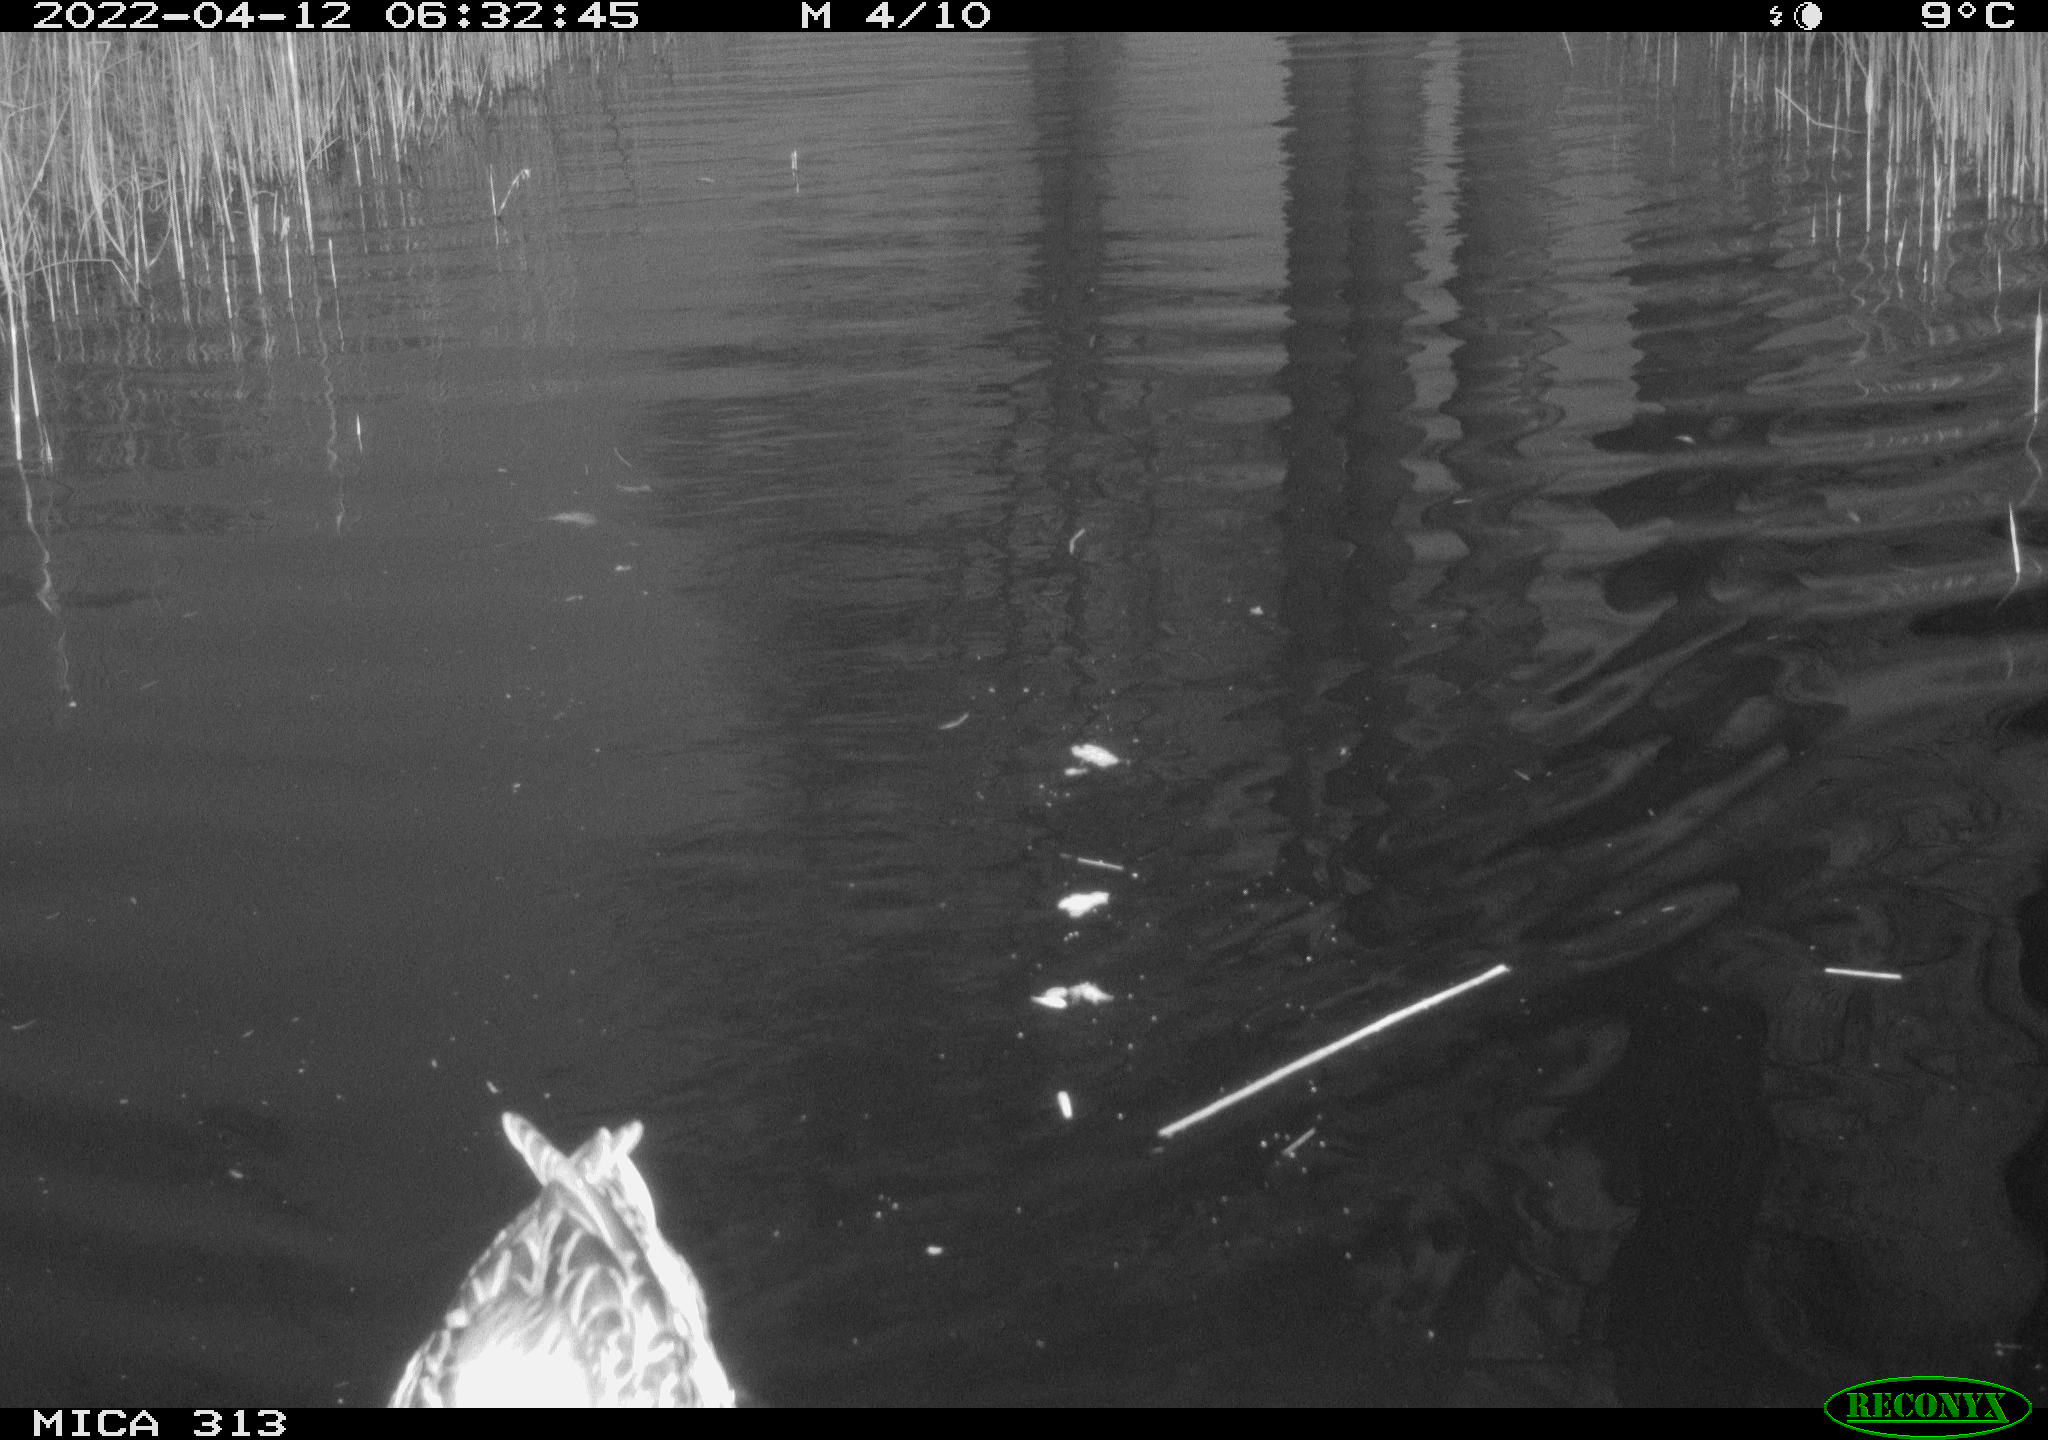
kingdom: Animalia
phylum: Chordata
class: Aves
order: Anseriformes
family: Anatidae
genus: Anas
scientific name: Anas platyrhynchos
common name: Mallard
